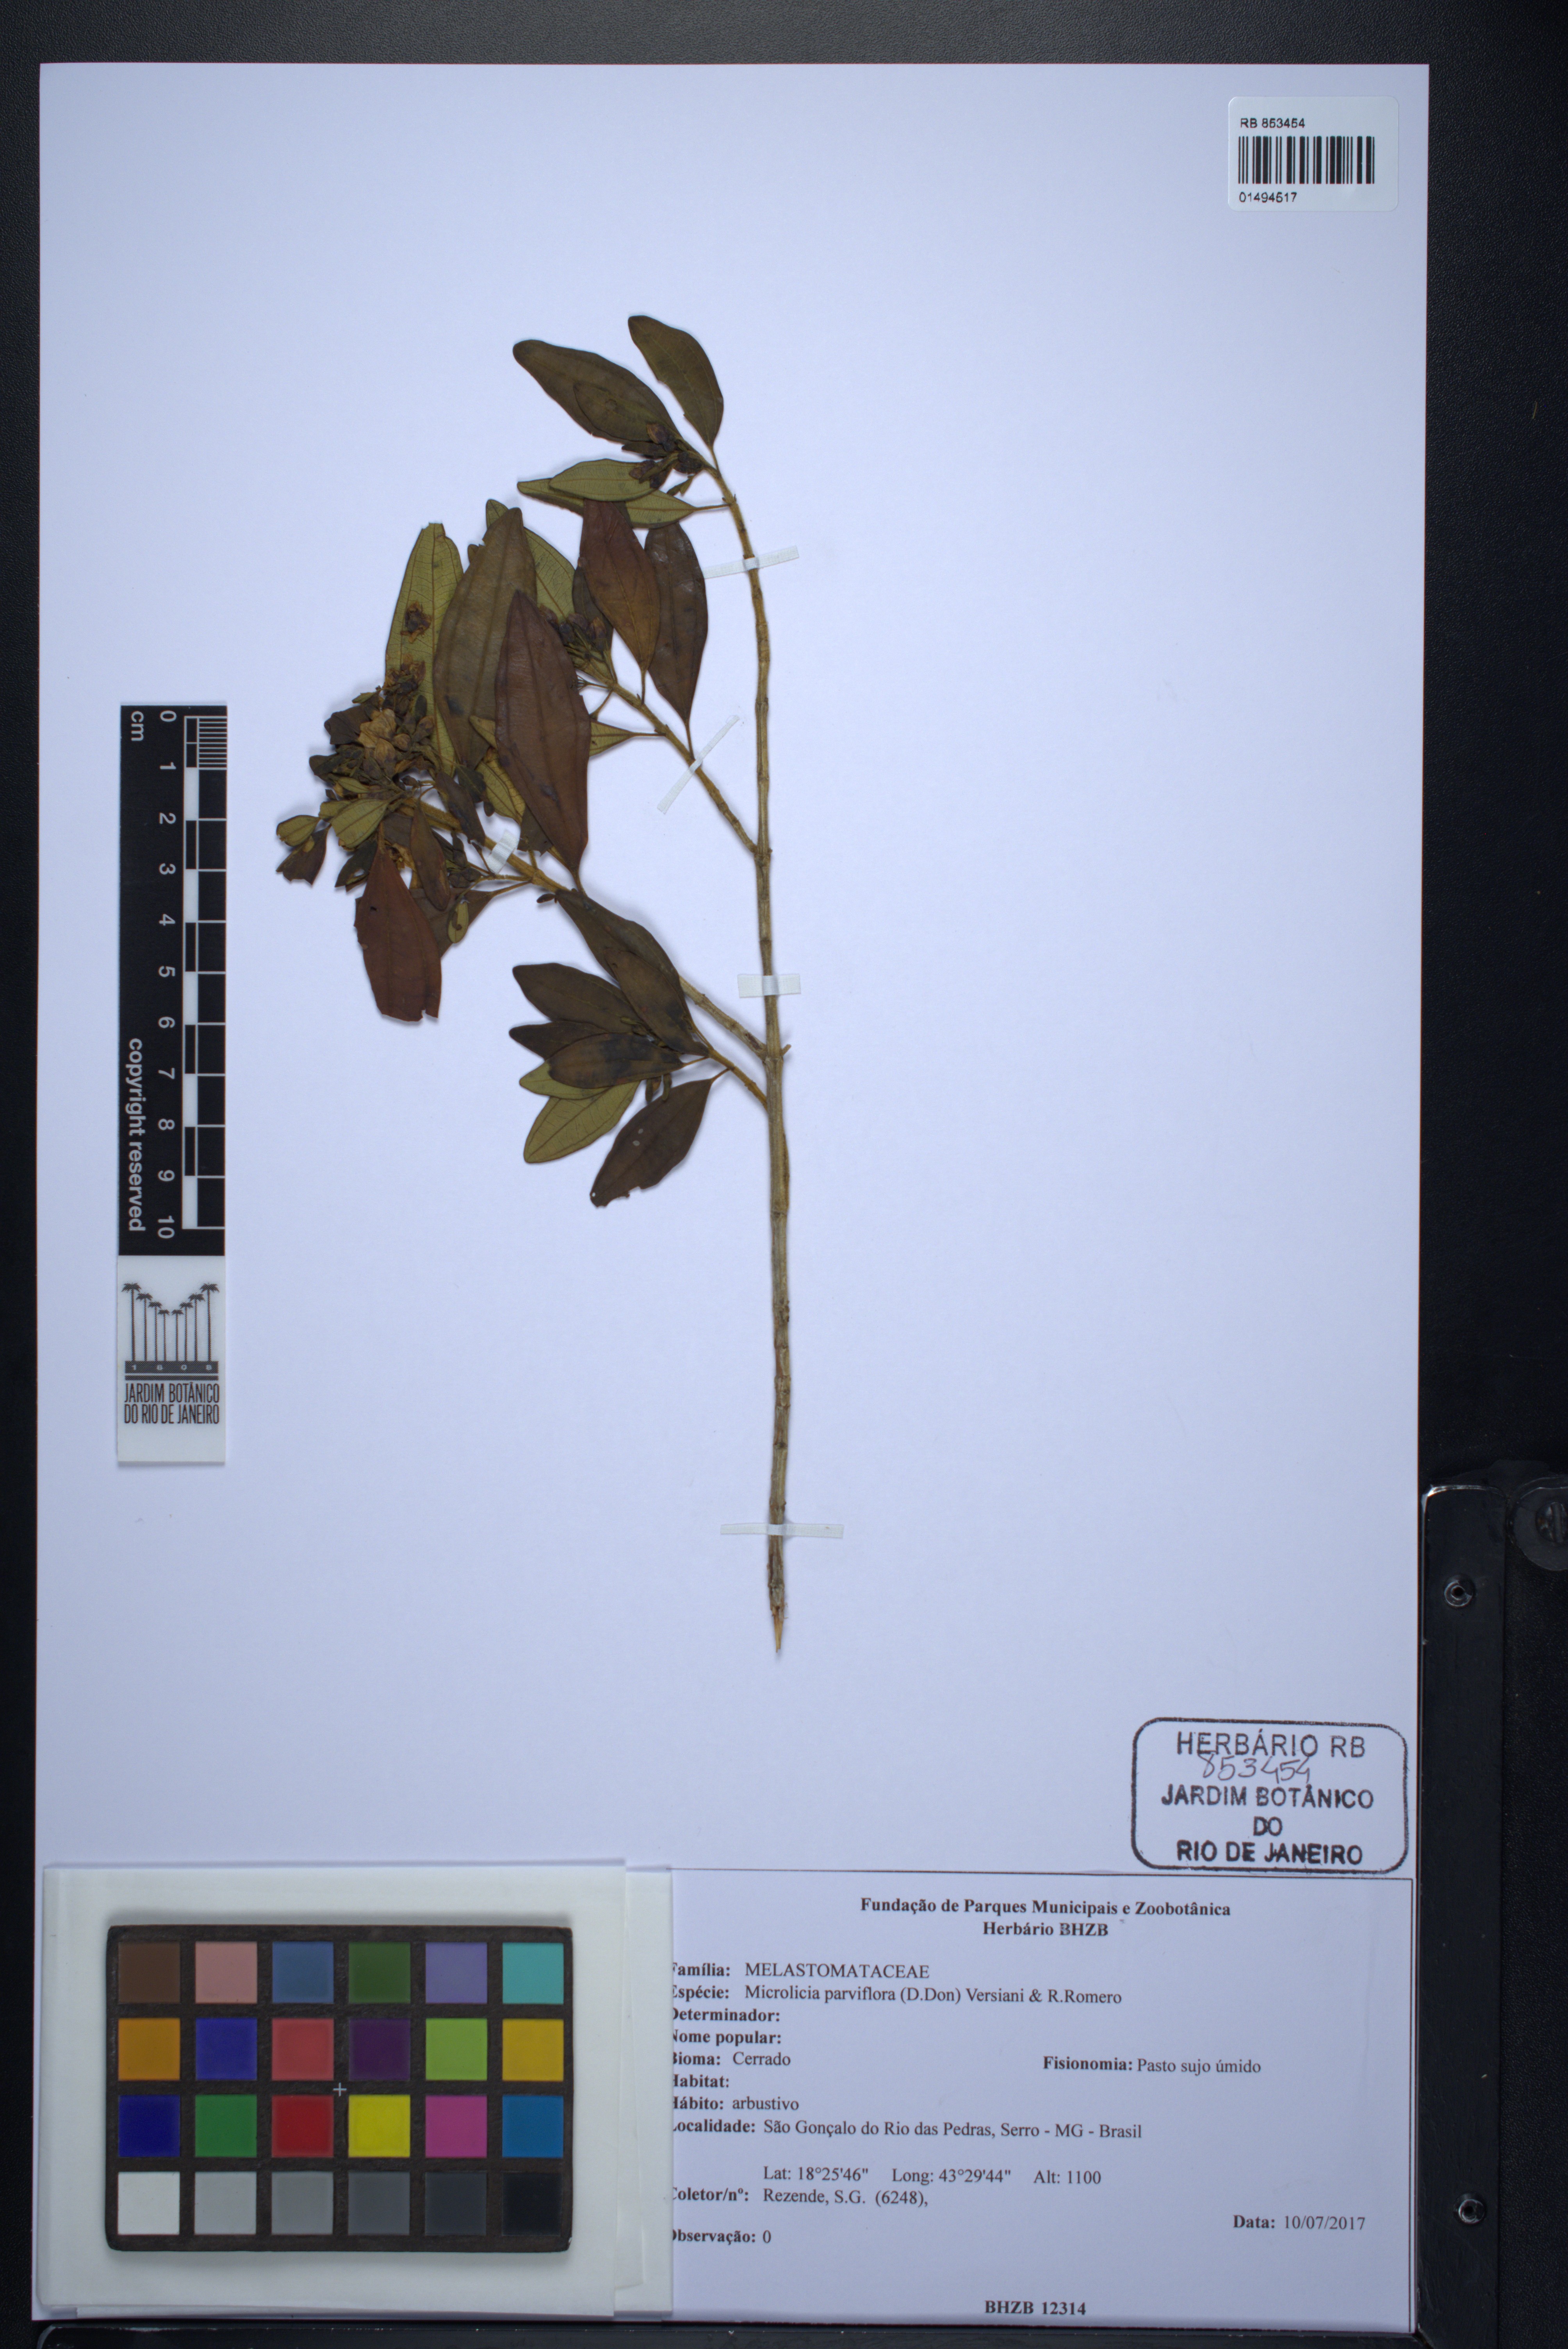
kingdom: Plantae
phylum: Tracheophyta
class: Magnoliopsida
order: Myrtales
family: Melastomataceae
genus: Microlicia
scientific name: Microlicia parviflora
